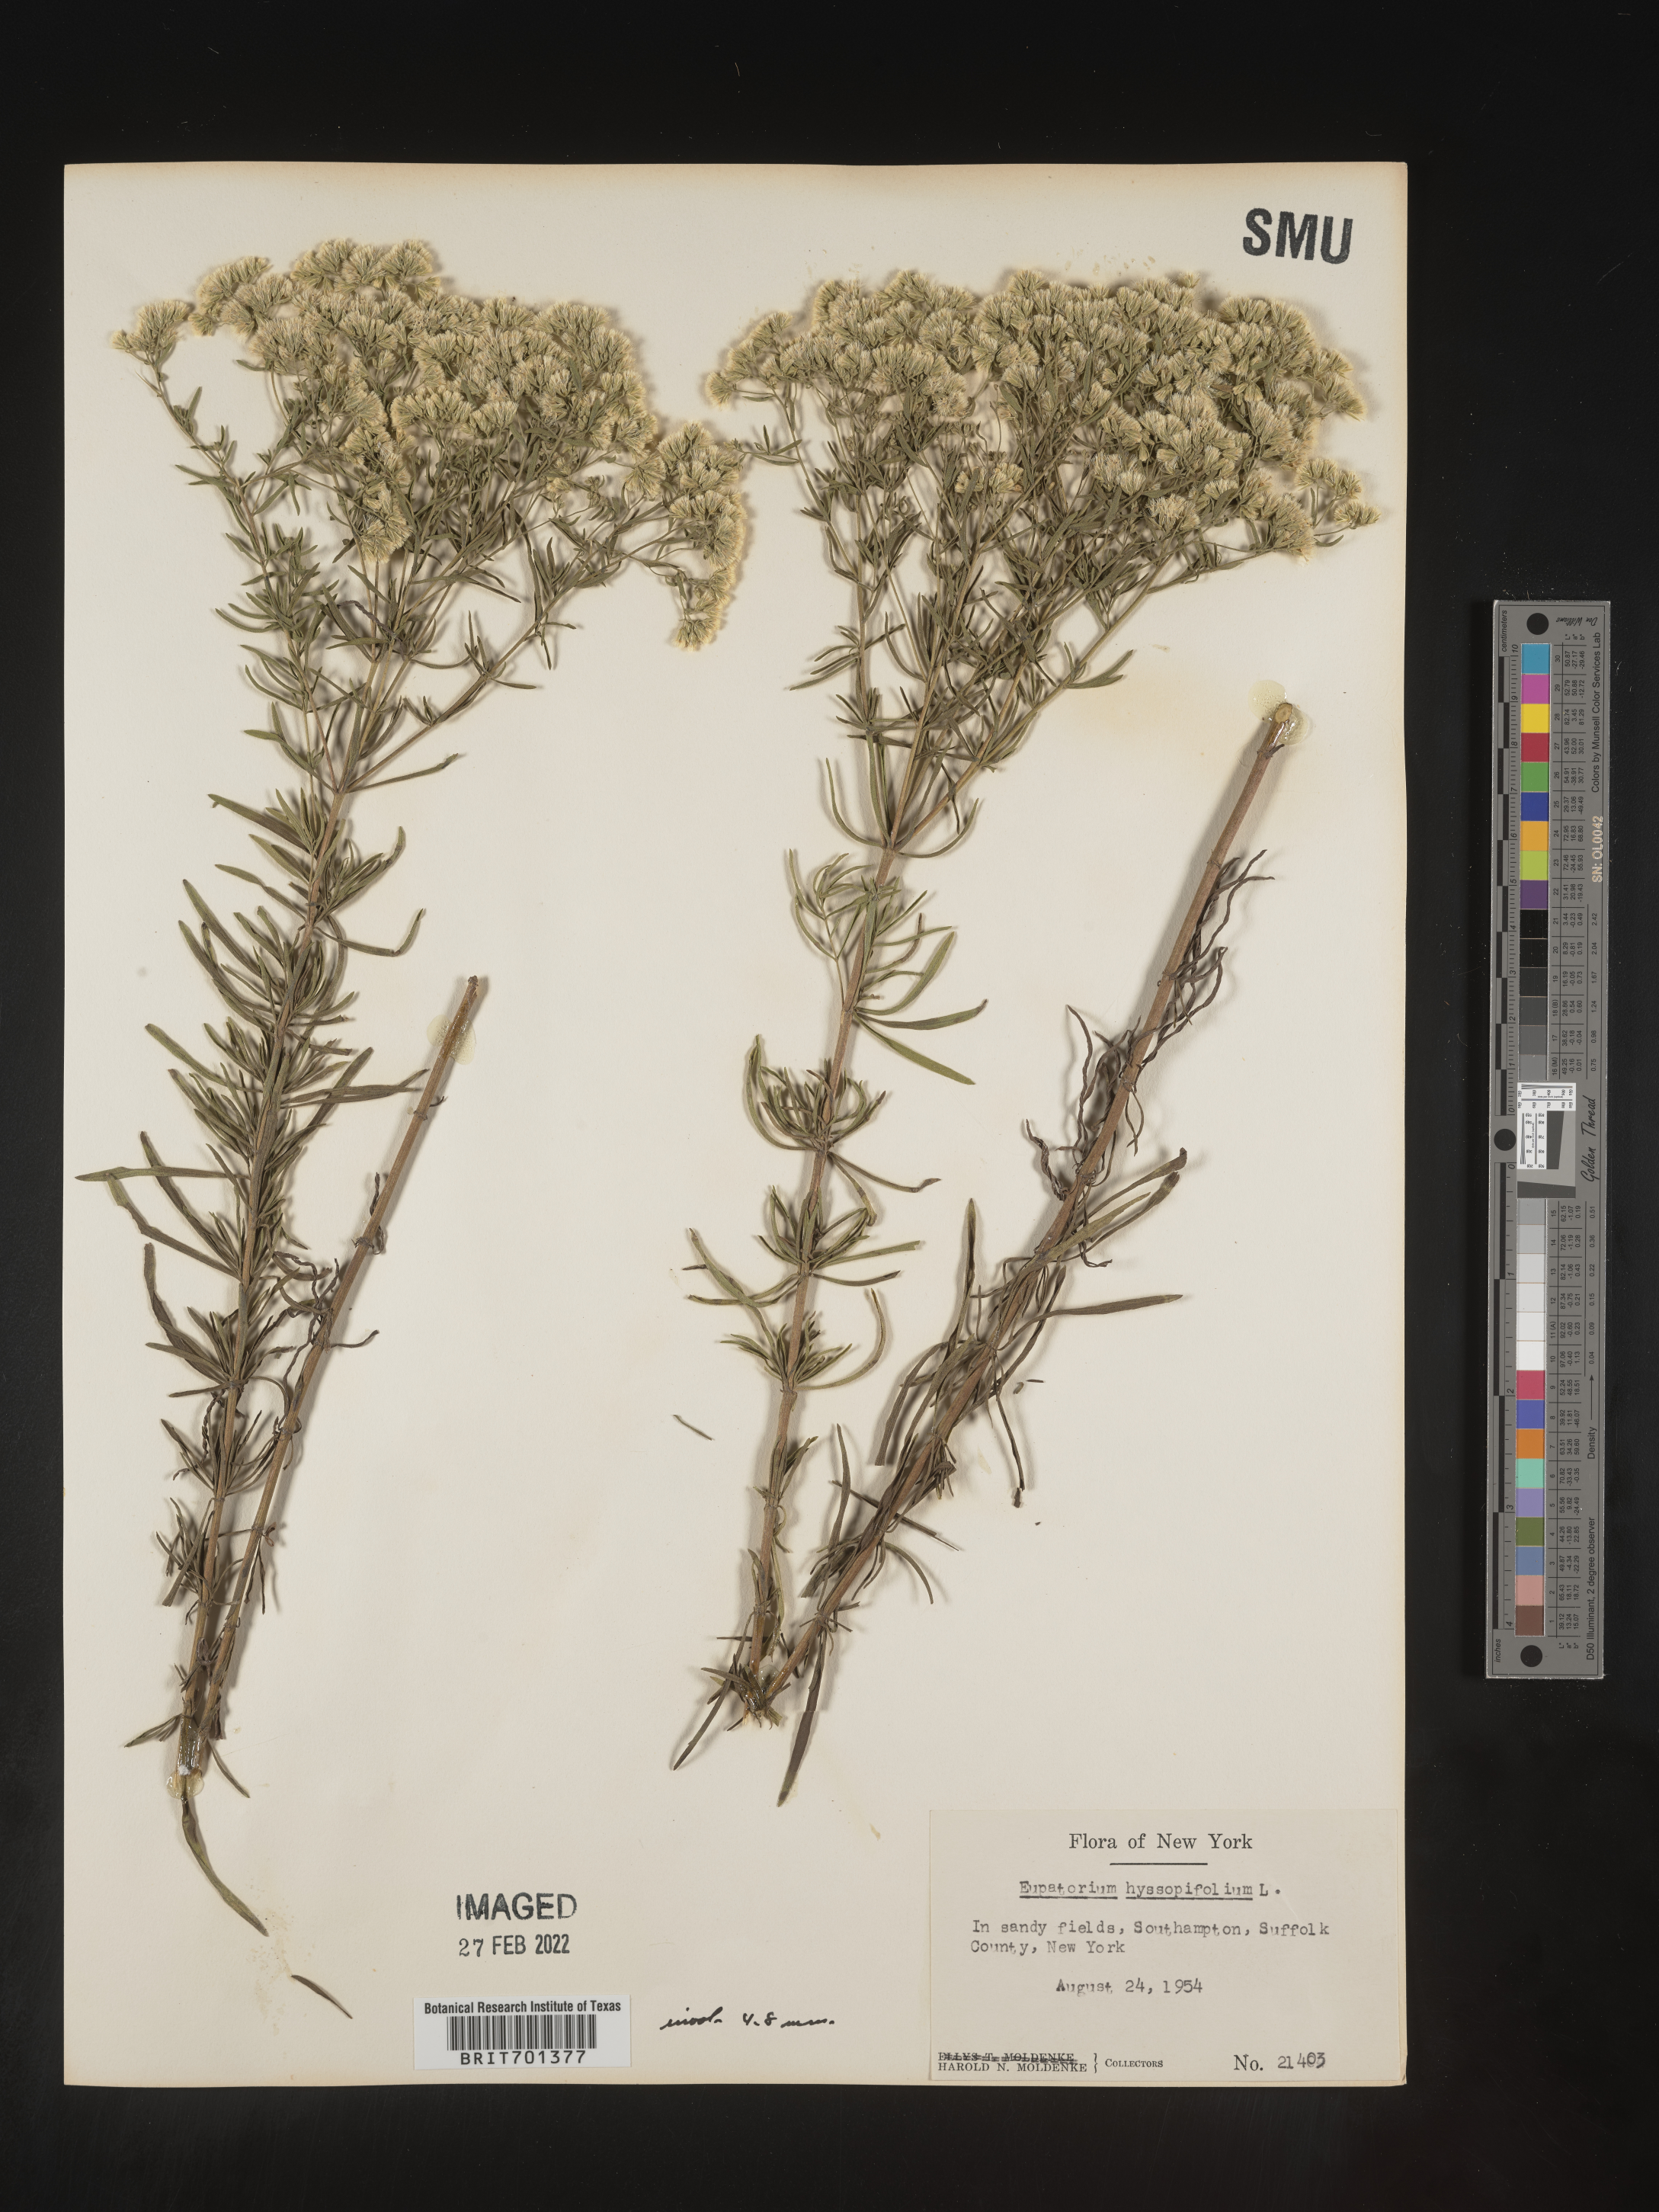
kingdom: Plantae
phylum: Tracheophyta
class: Magnoliopsida
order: Asterales
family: Asteraceae
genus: Eupatorium
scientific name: Eupatorium hyssopifolium
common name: Hyssop-leaf thoroughwort
